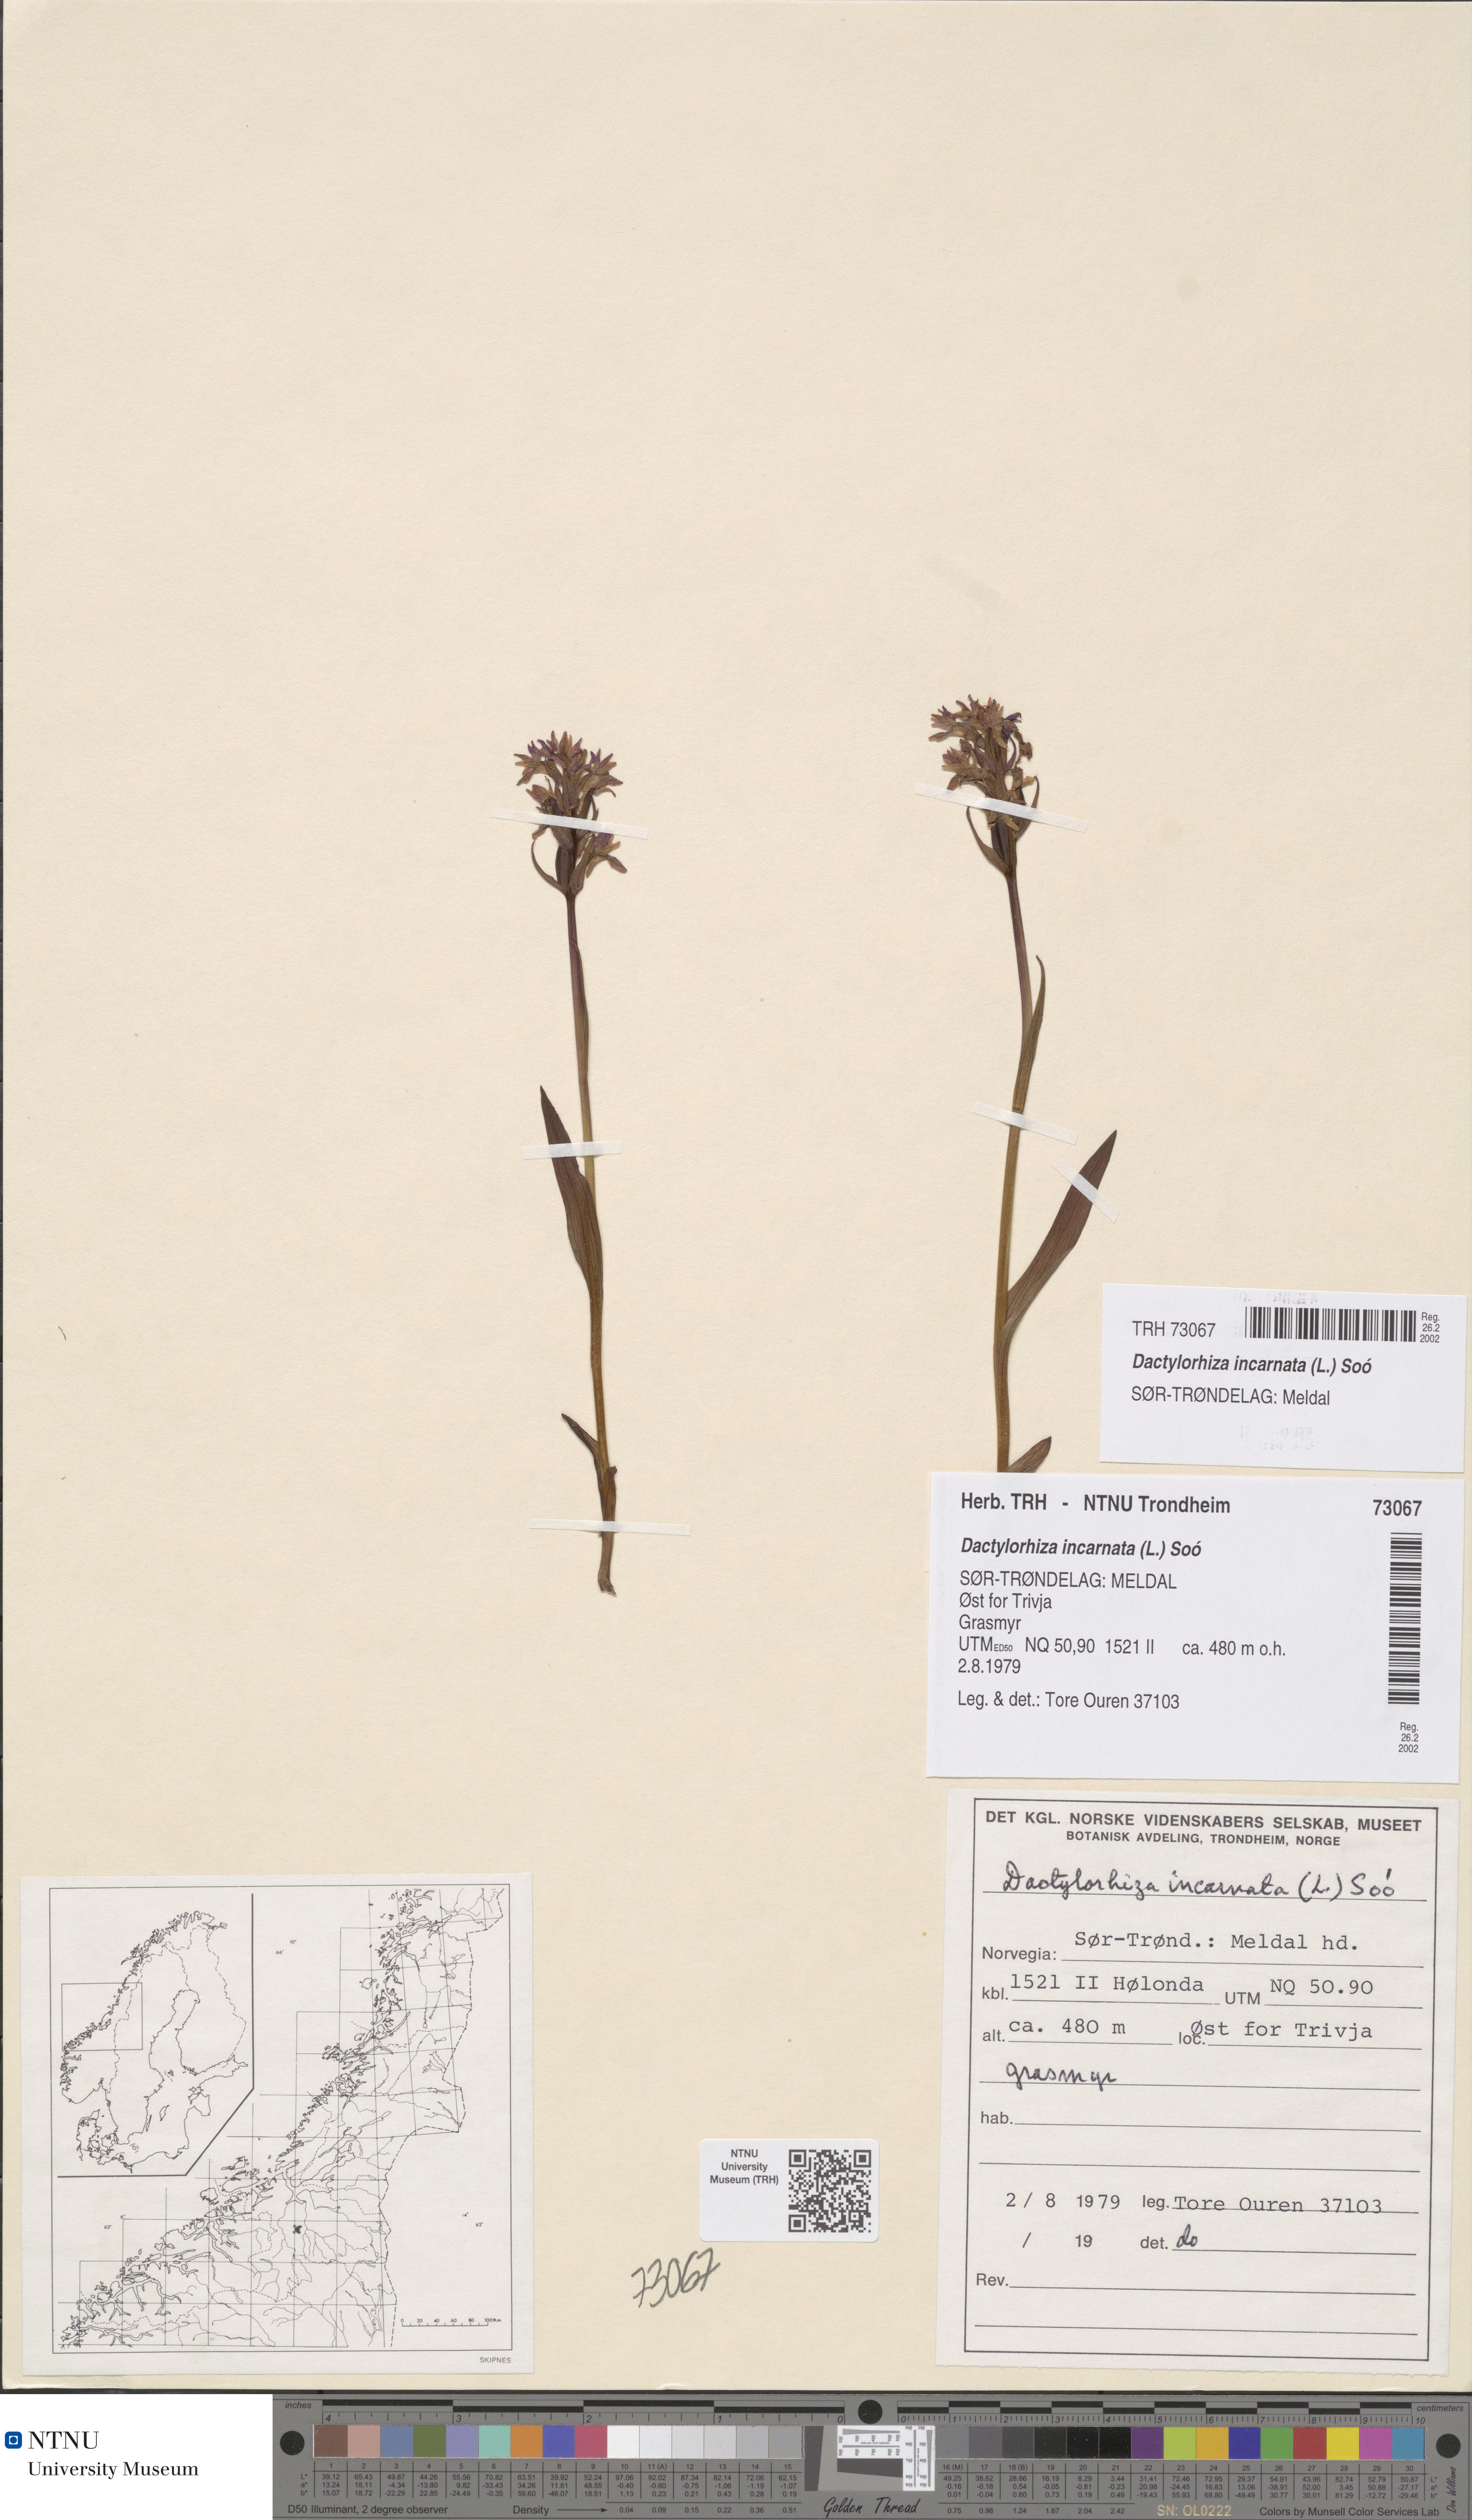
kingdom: Plantae
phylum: Tracheophyta
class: Liliopsida
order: Asparagales
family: Orchidaceae
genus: Dactylorhiza
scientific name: Dactylorhiza incarnata
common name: Early marsh-orchid
